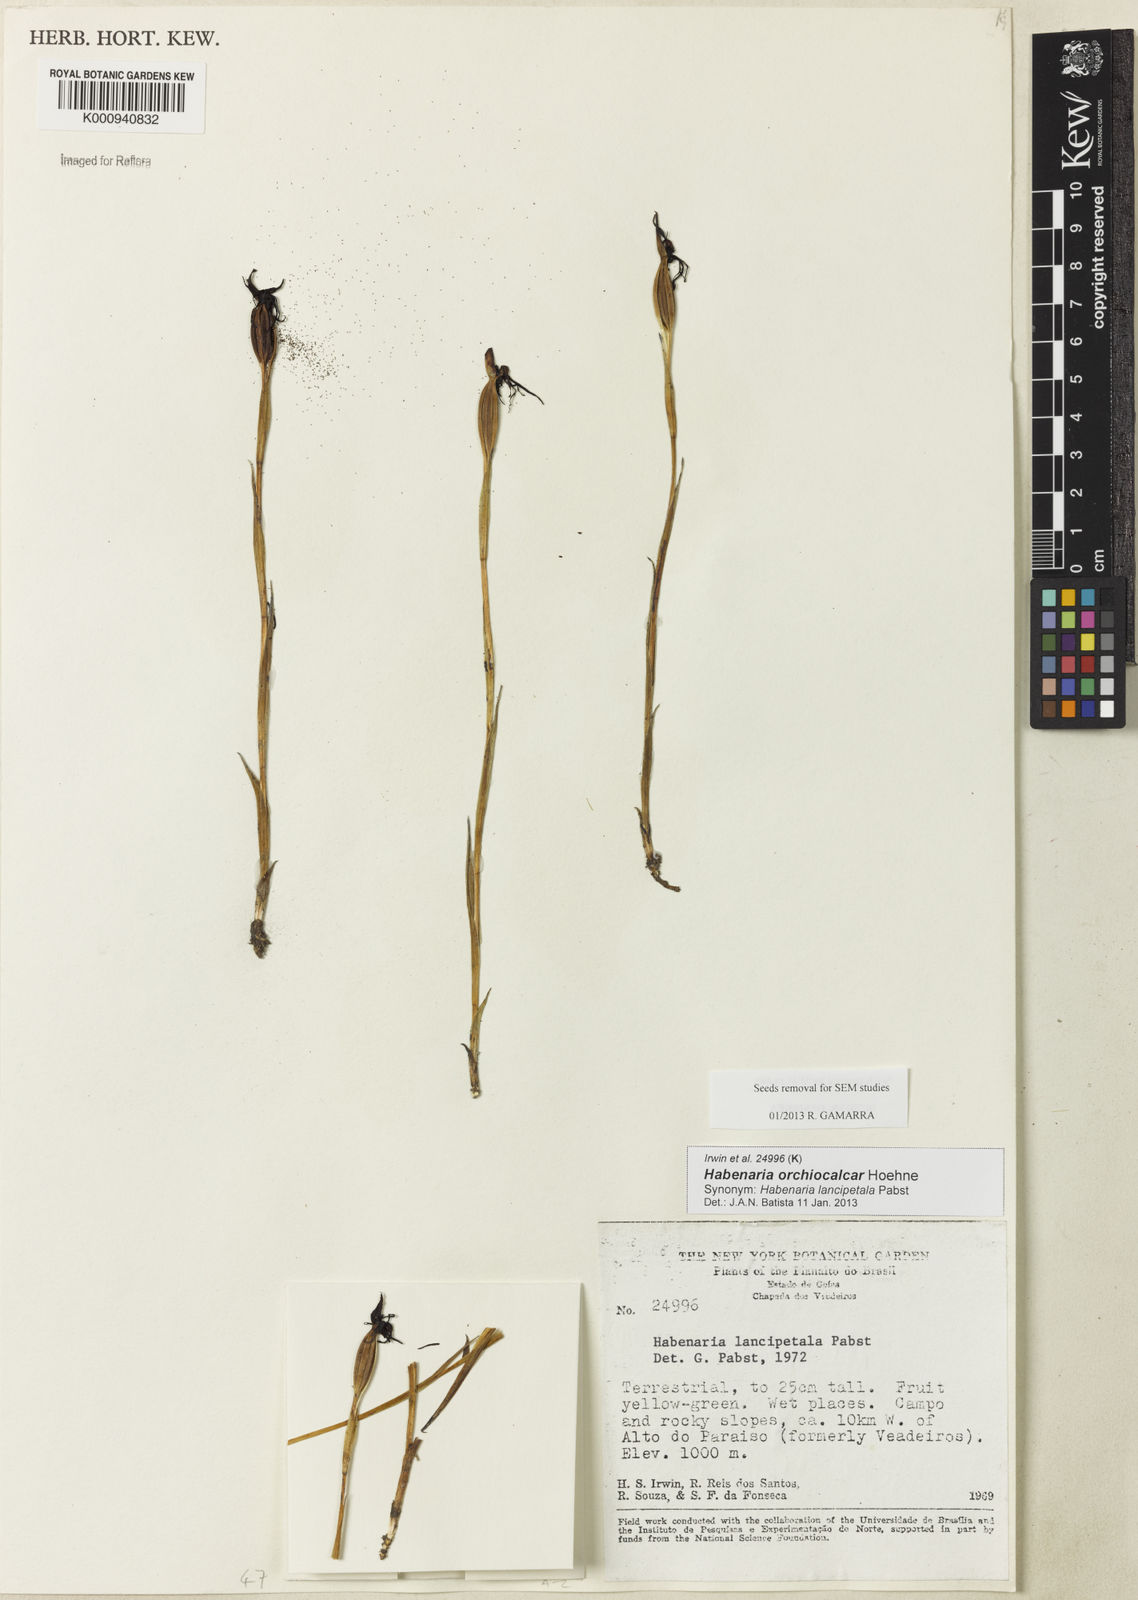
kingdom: Plantae
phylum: Tracheophyta
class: Liliopsida
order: Asparagales
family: Orchidaceae
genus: Habenaria
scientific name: Habenaria orchiocalcar
